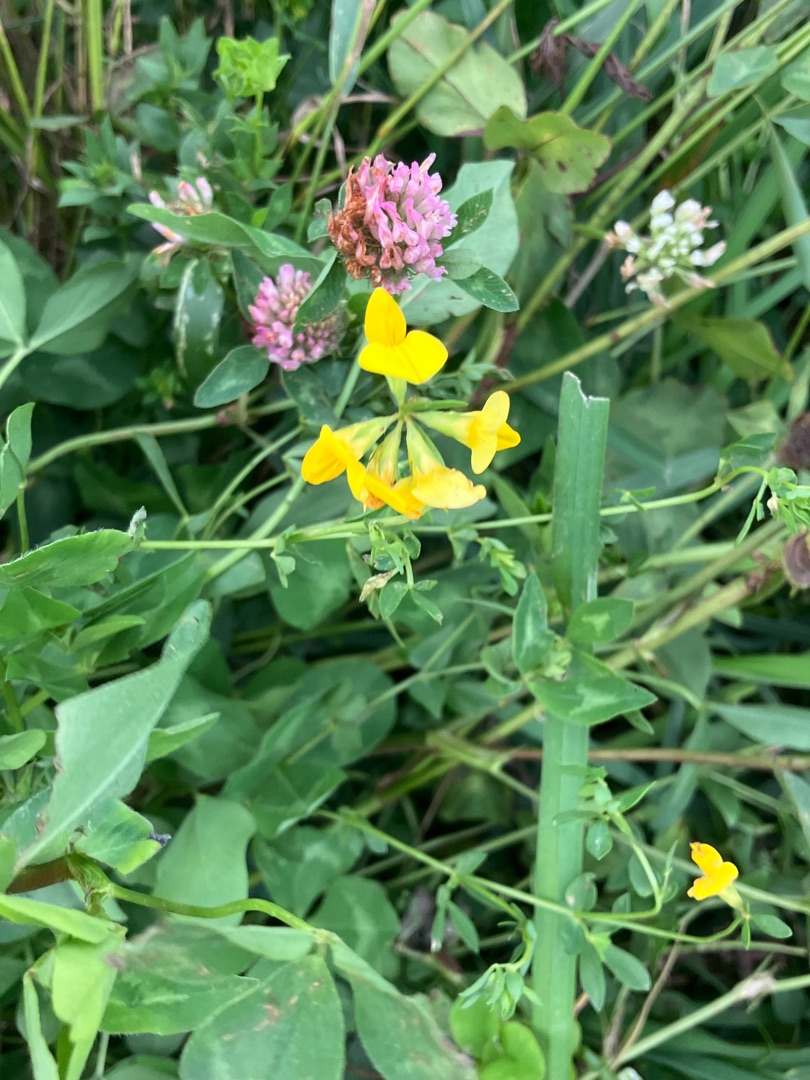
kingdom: Plantae
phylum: Tracheophyta
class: Magnoliopsida
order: Fabales
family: Fabaceae
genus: Lotus
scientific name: Lotus corniculatus
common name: Almindelig kællingetand
